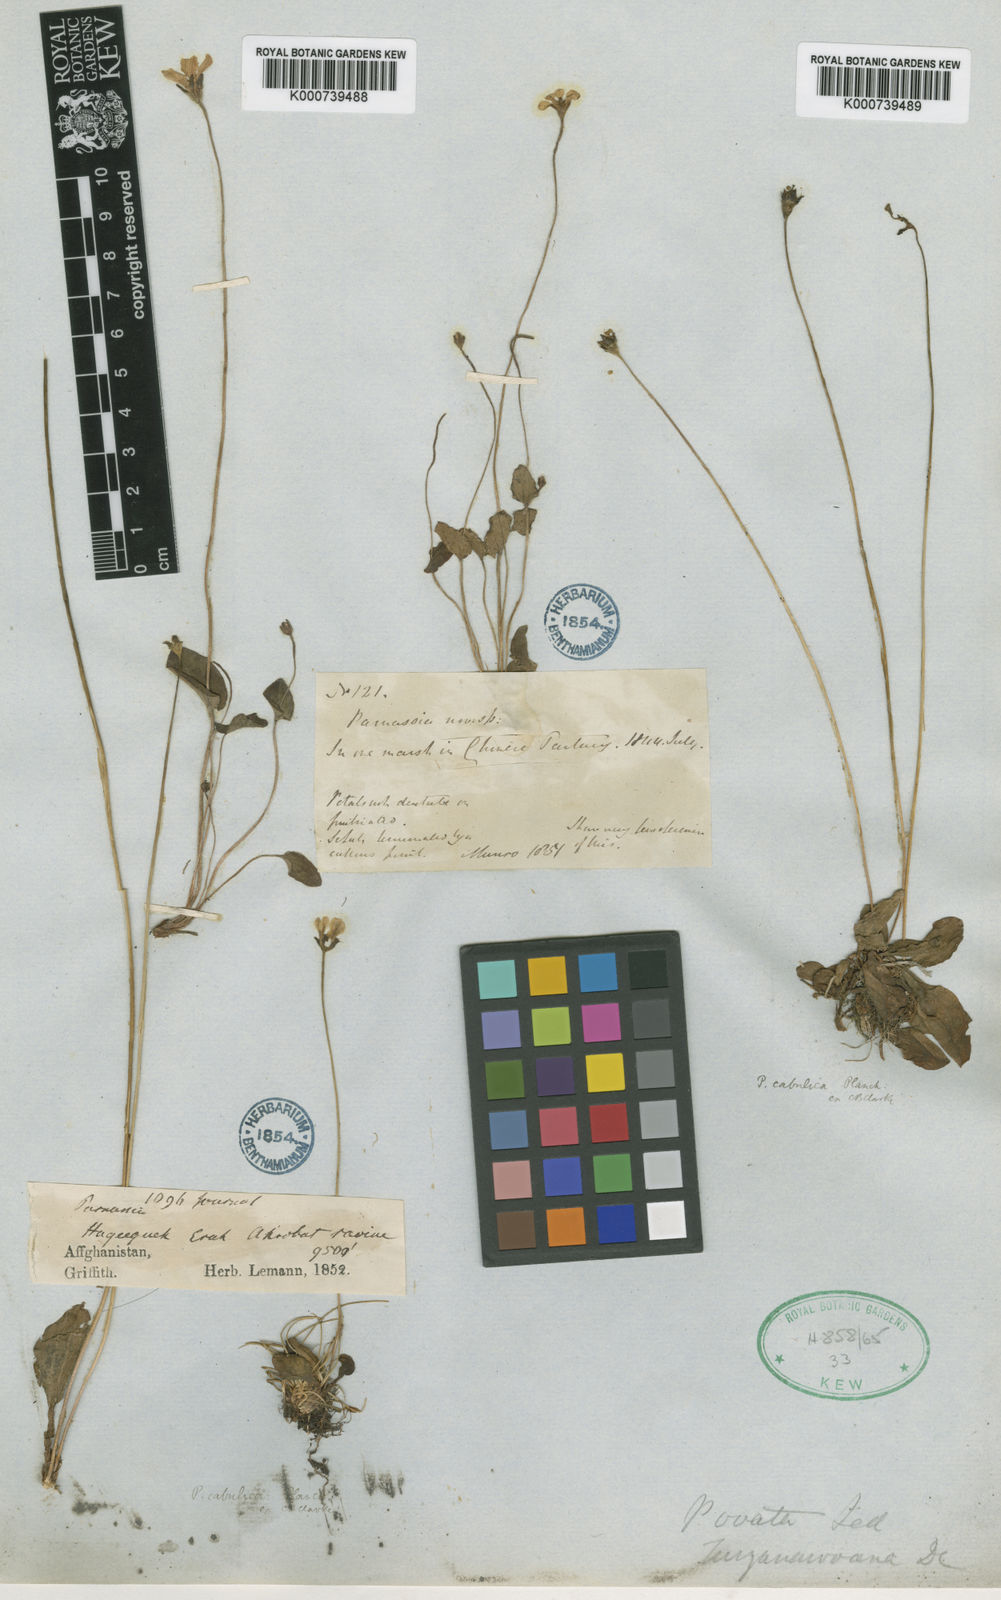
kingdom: Plantae
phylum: Tracheophyta
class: Magnoliopsida
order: Celastrales
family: Parnassiaceae
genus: Parnassia
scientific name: Parnassia cabulica
